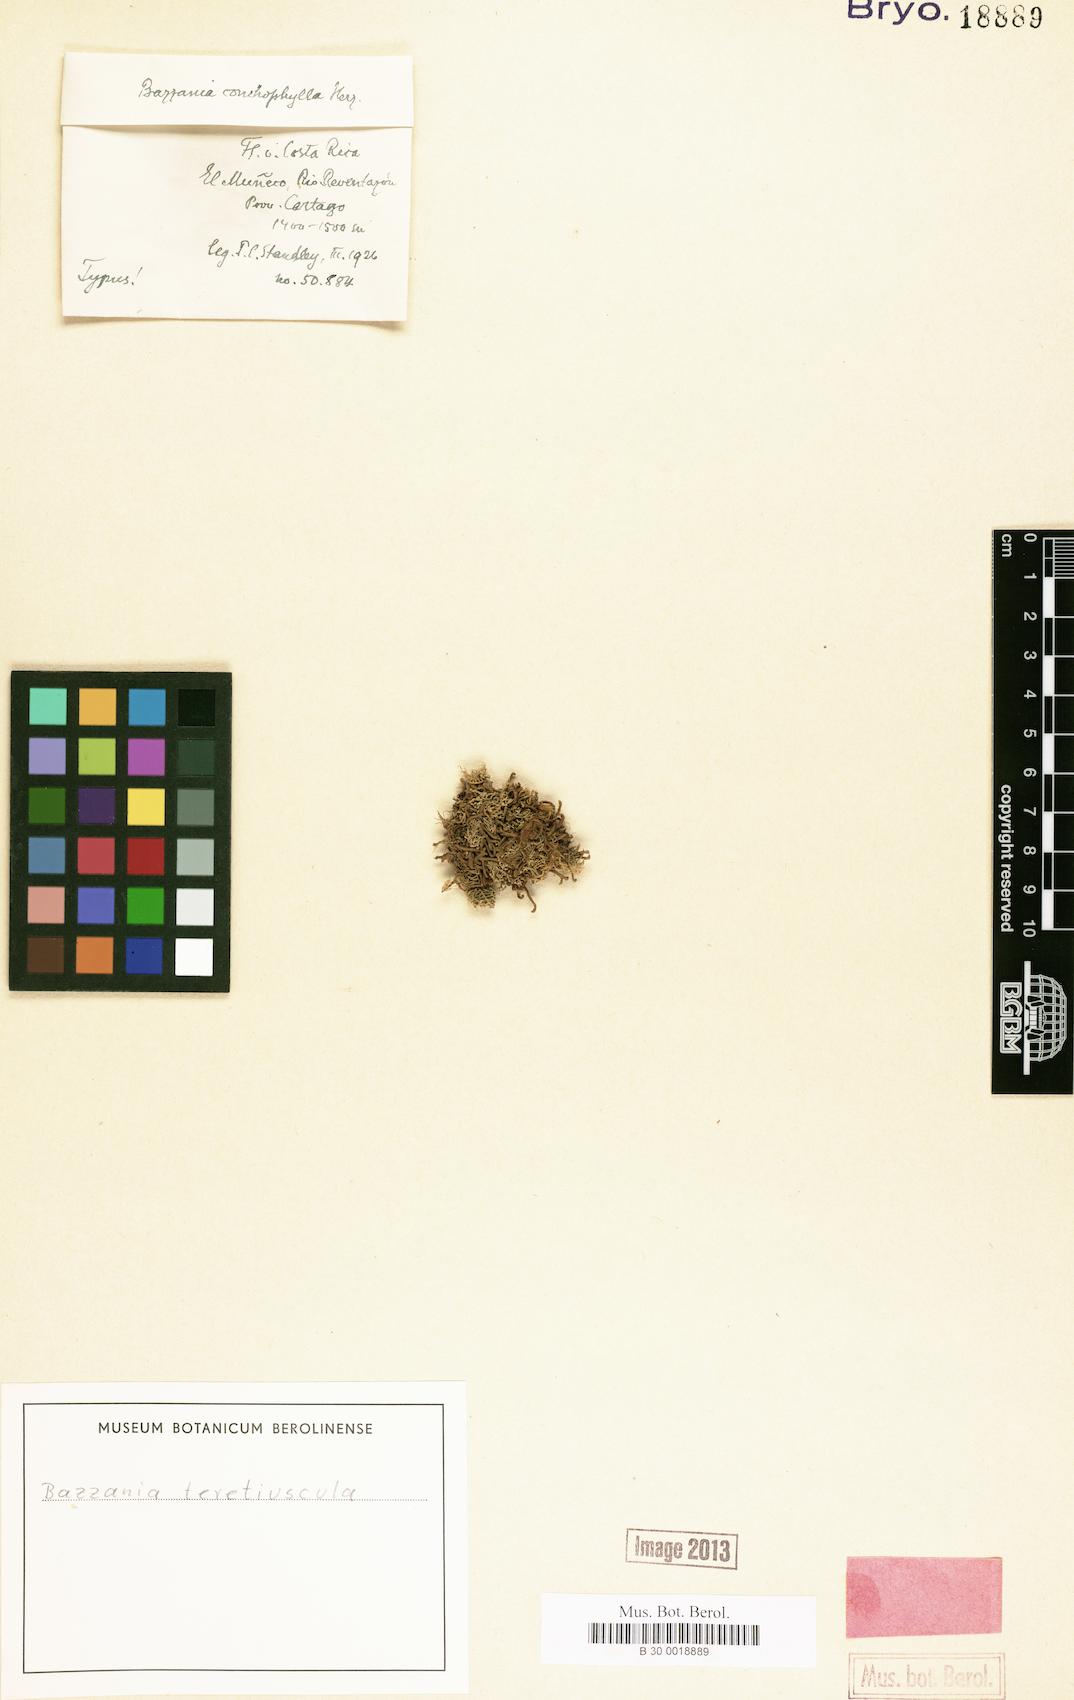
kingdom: Plantae
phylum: Marchantiophyta
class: Jungermanniopsida
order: Jungermanniales
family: Lepidoziaceae
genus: Bazzania
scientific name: Bazzania hookeri
